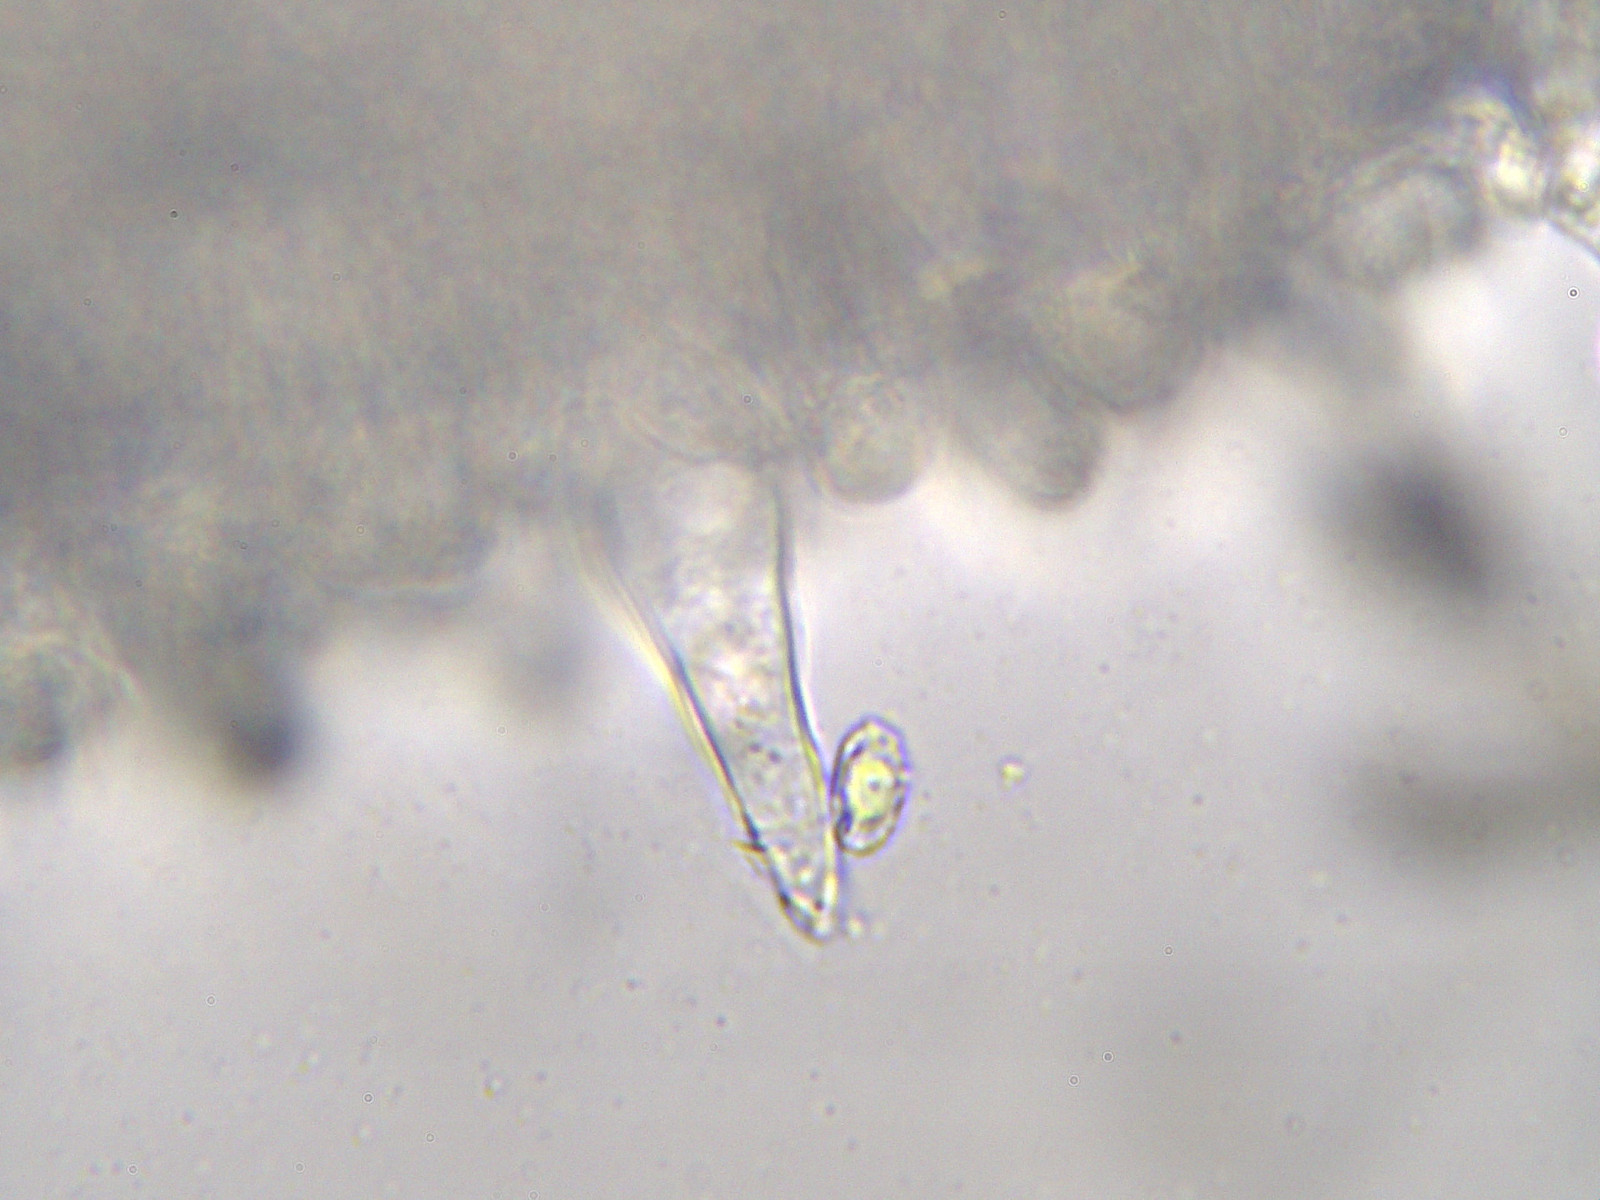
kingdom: Fungi
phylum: Basidiomycota
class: Agaricomycetes
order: Agaricales
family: Tricholomataceae
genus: Melanoleuca
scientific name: Melanoleuca polioleuca
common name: almindelig munkehat
